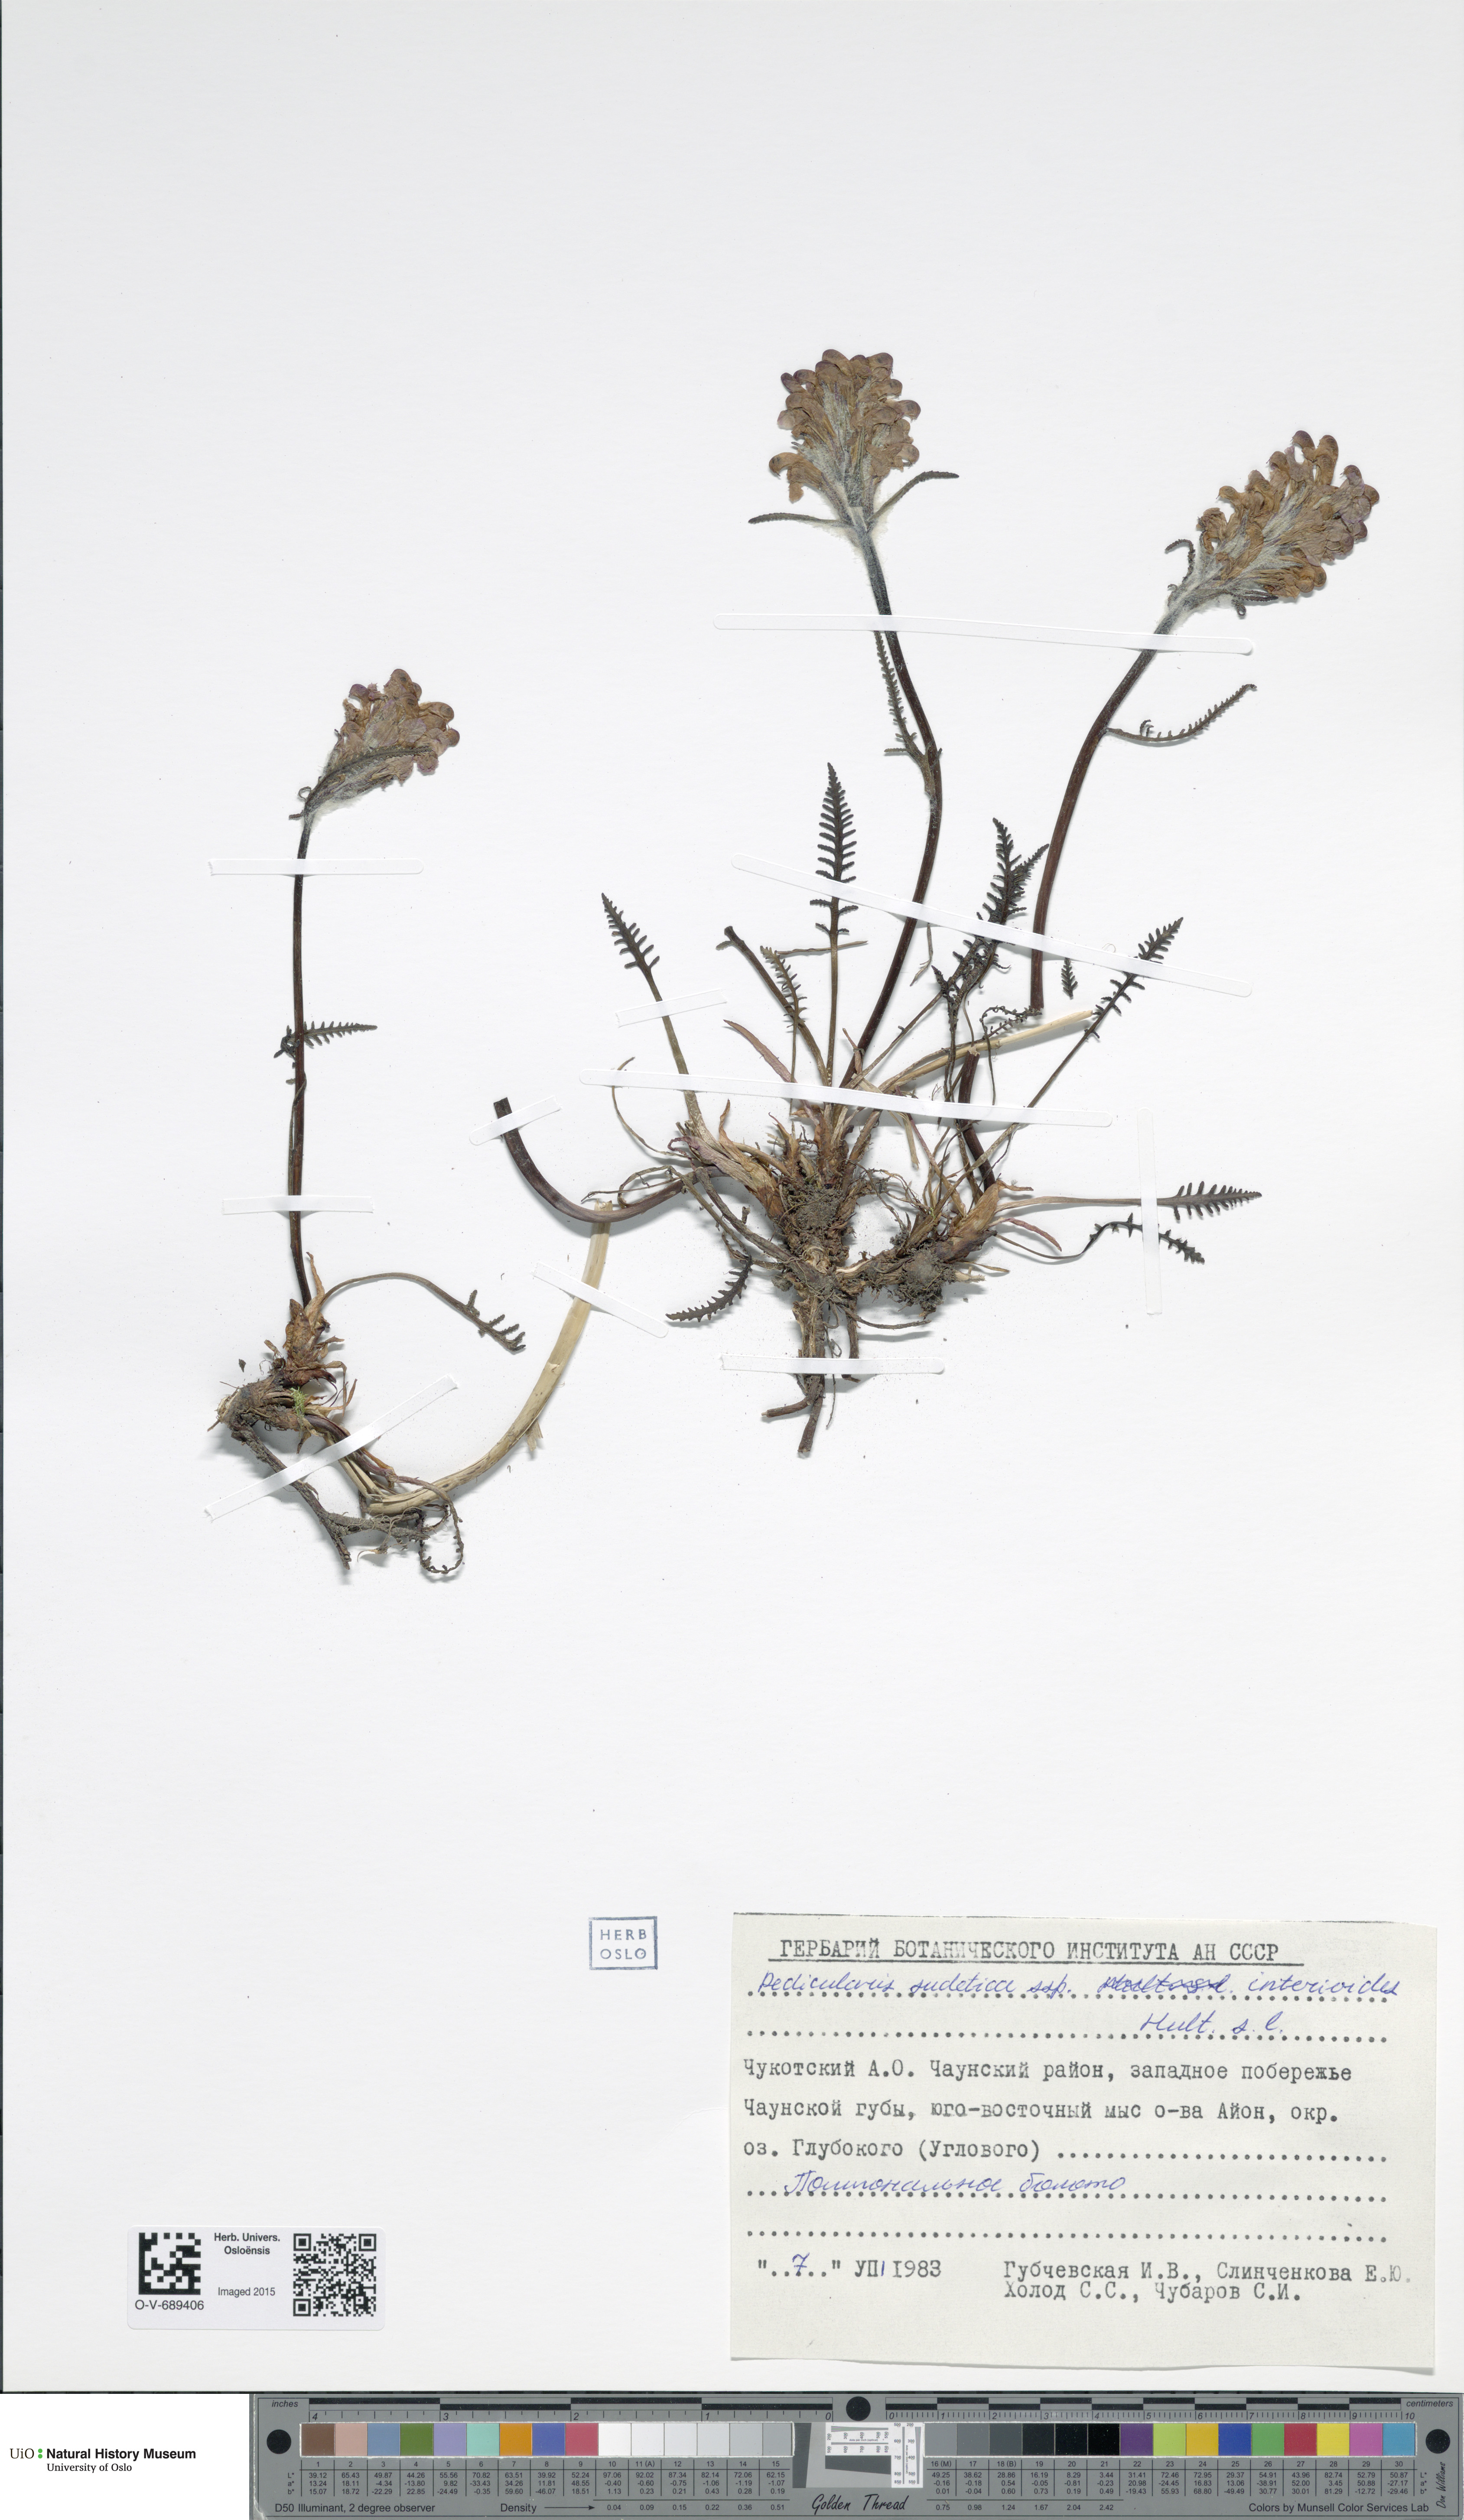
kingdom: Plantae
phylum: Tracheophyta
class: Magnoliopsida
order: Lamiales
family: Orobanchaceae
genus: Pedicularis
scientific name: Pedicularis interior
